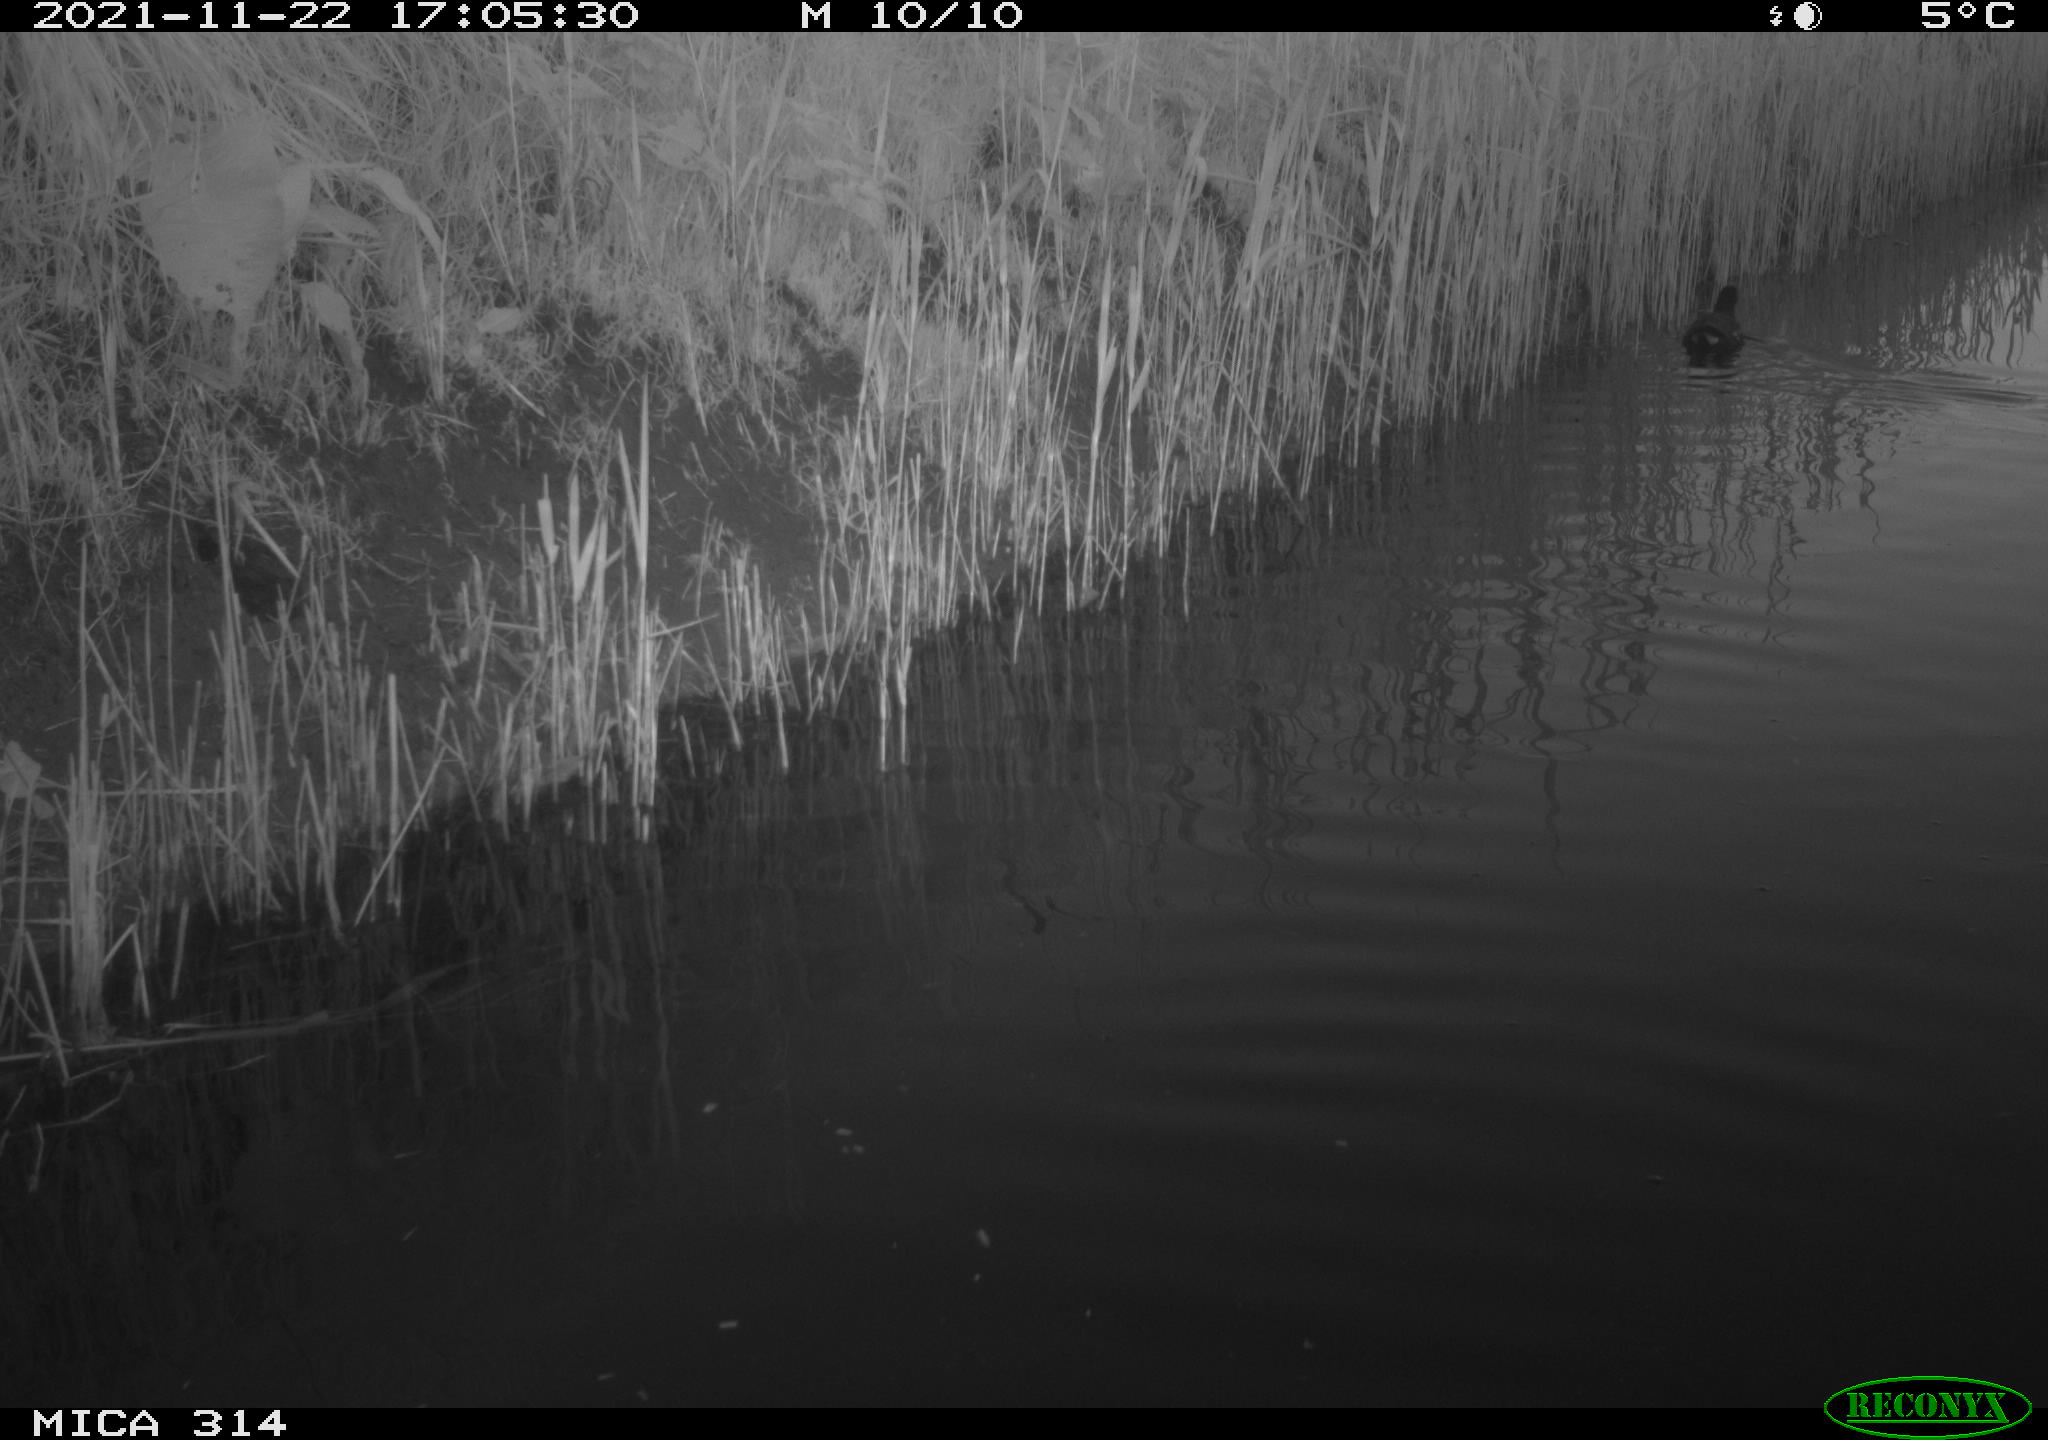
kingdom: Animalia
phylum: Chordata
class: Aves
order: Gruiformes
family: Rallidae
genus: Gallinula
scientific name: Gallinula chloropus
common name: Common moorhen
